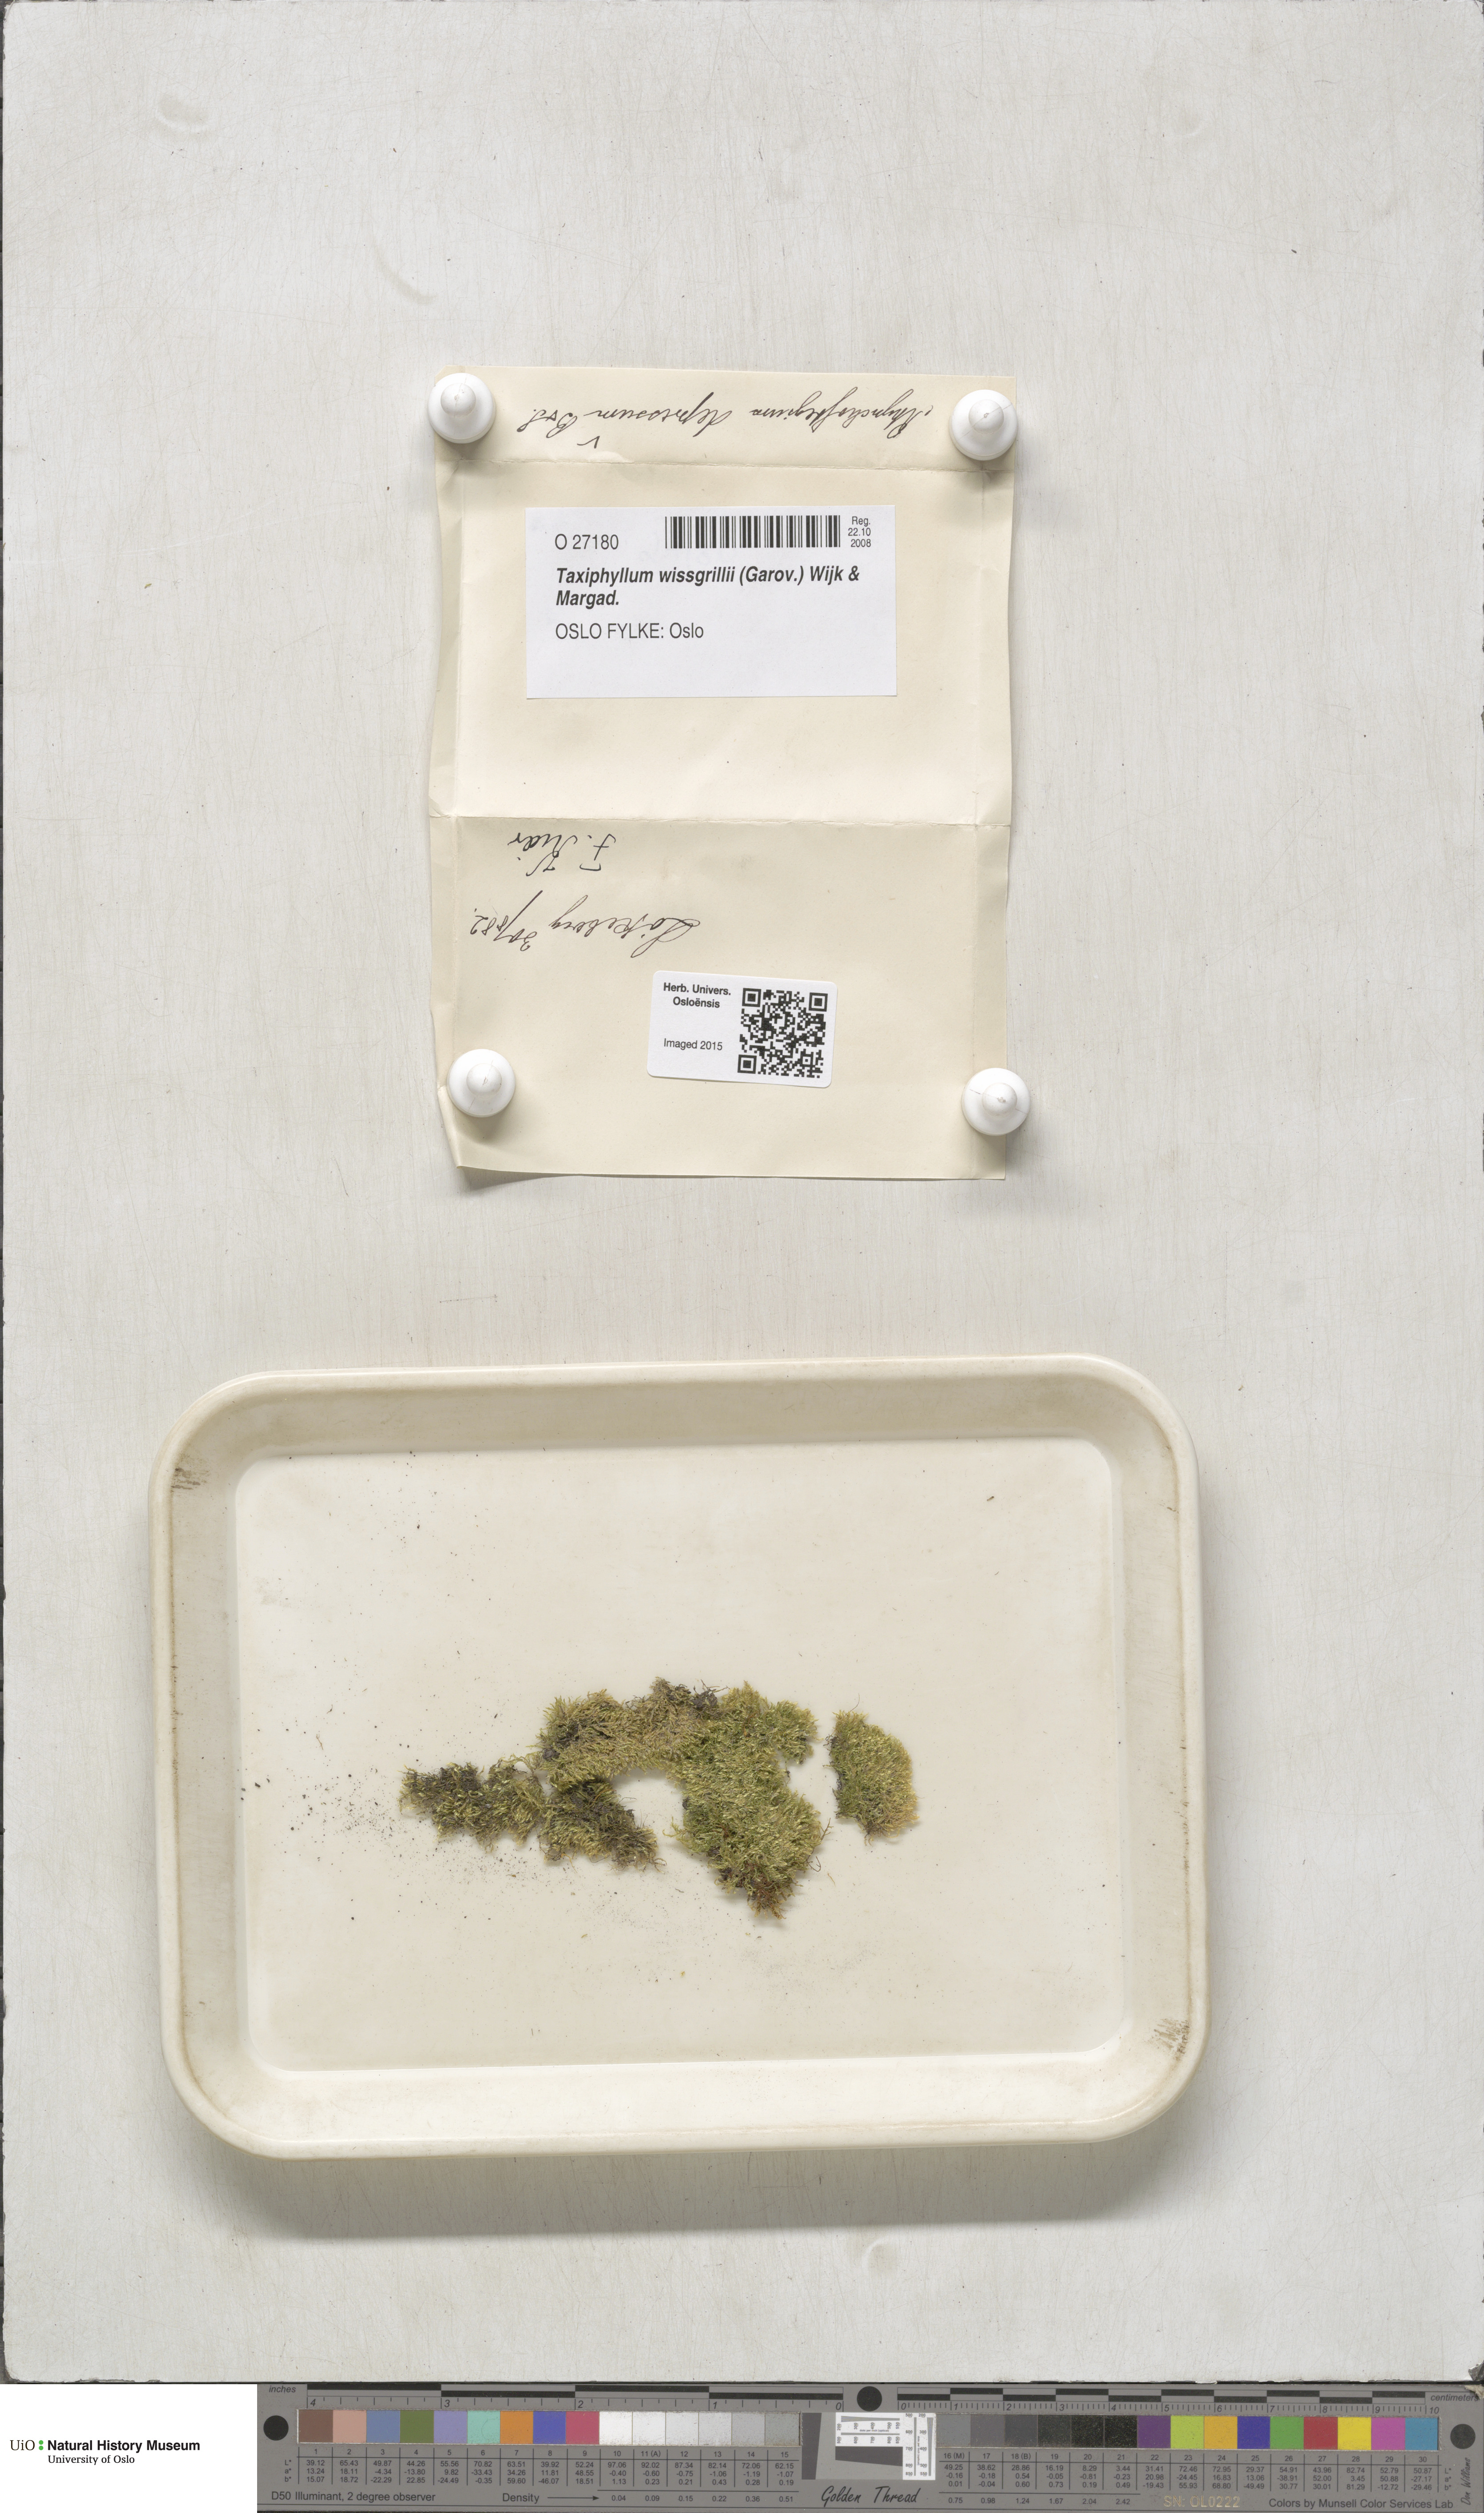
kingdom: Plantae
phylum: Bryophyta
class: Bryopsida
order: Hypnales
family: Taxiphyllaceae
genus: Taxiphyllum
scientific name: Taxiphyllum wissgrillii
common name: Depressed feather-moss
